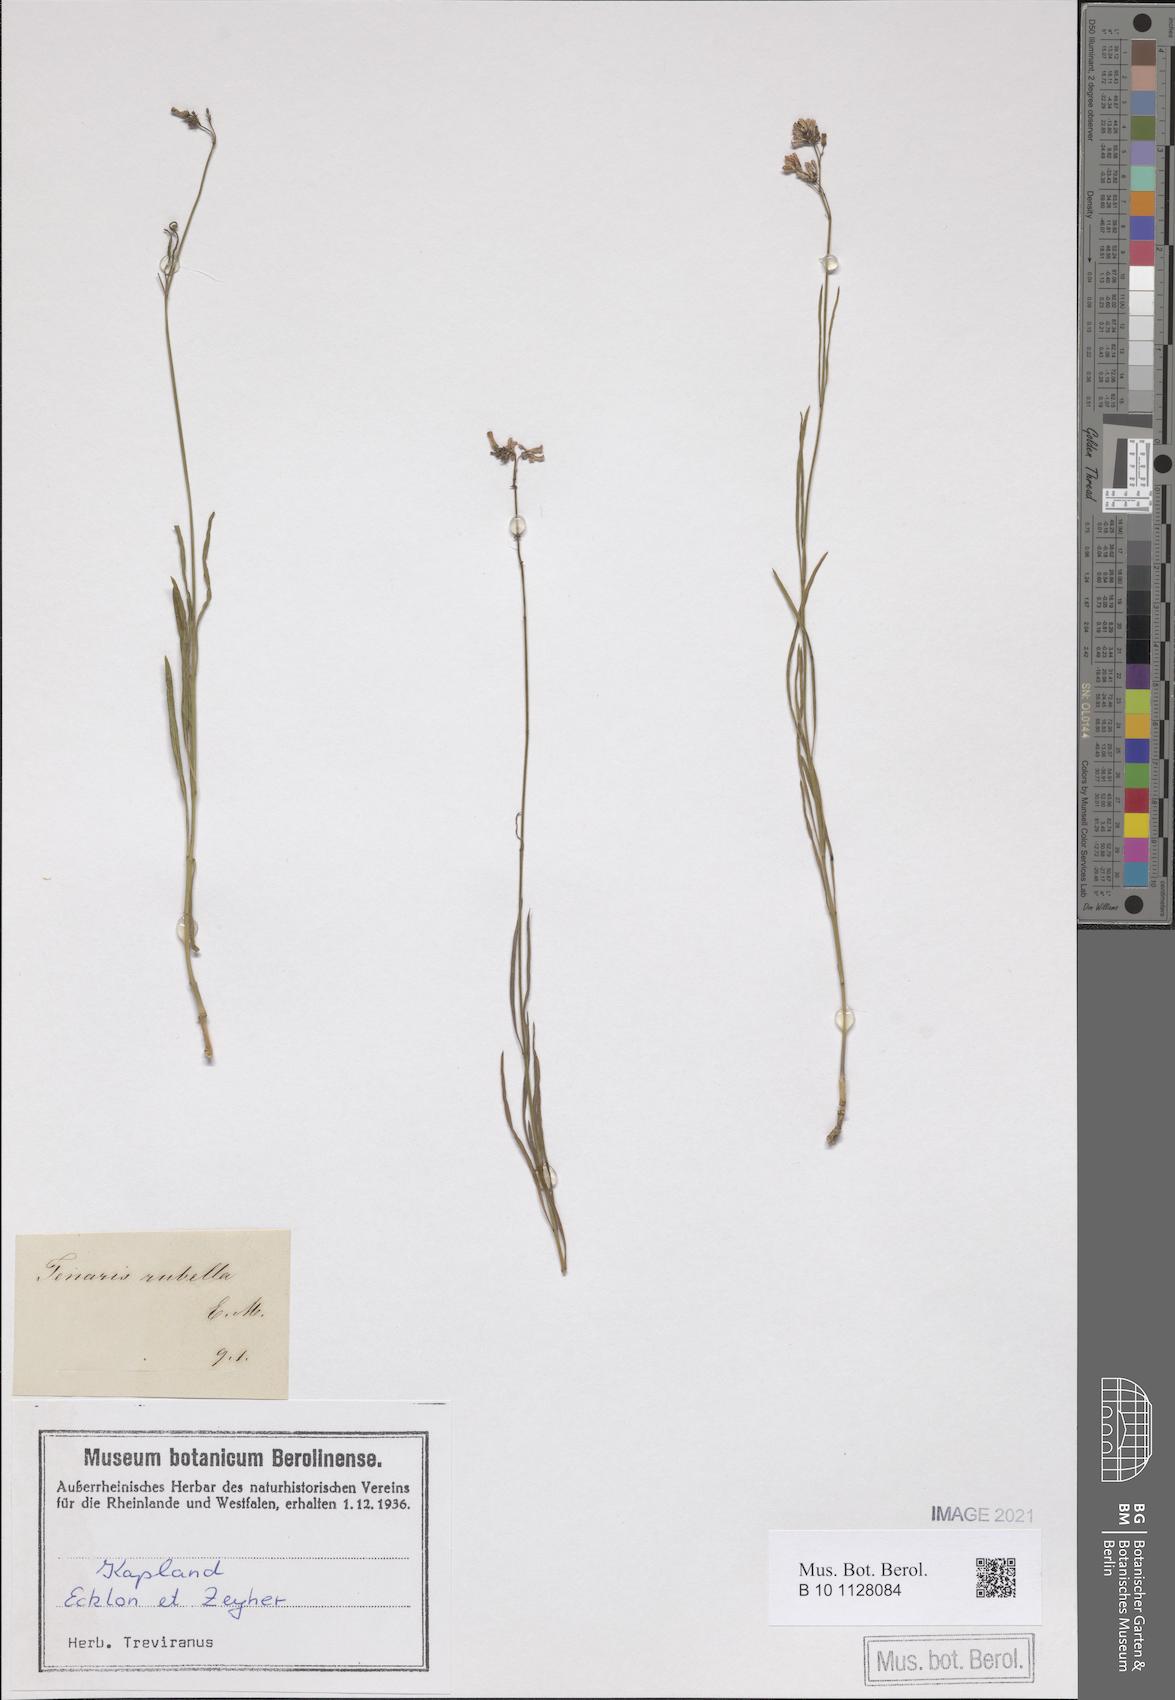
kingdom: Plantae
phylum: Tracheophyta
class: Magnoliopsida
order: Gentianales
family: Apocynaceae
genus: Ceropegia
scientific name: Ceropegia rubella
